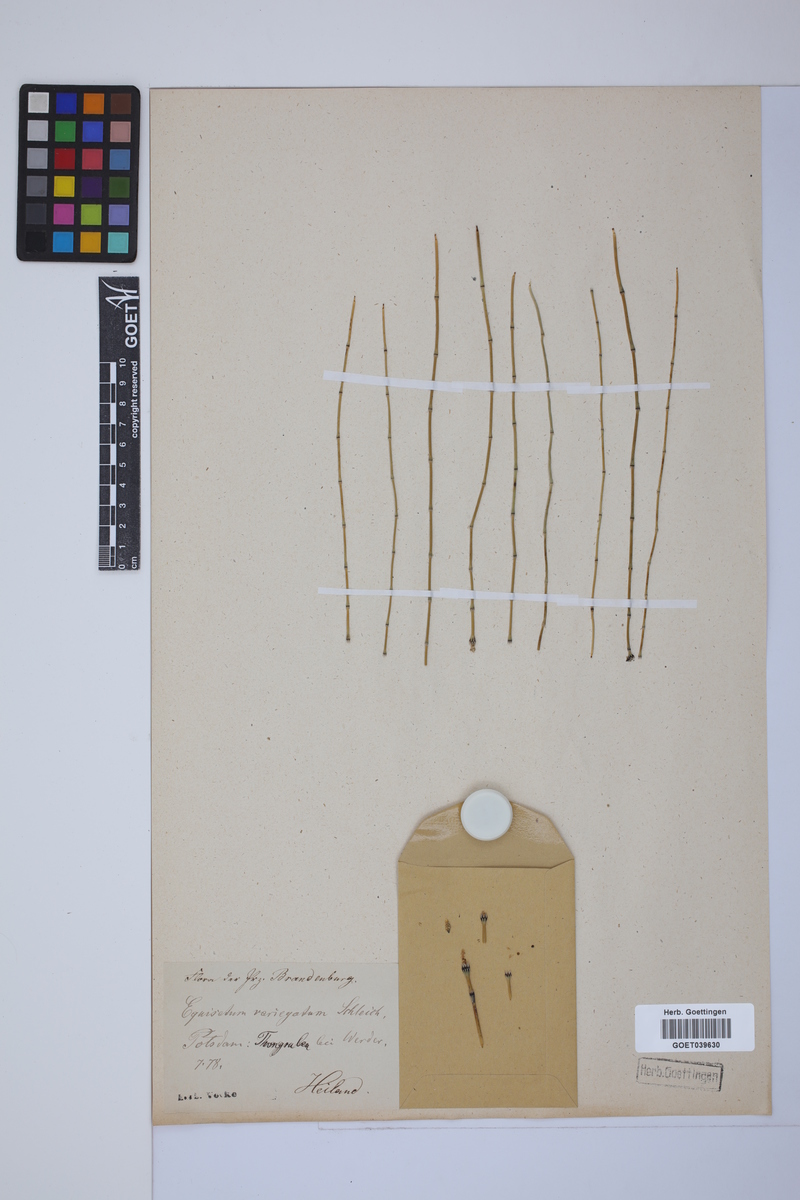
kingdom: Plantae
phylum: Tracheophyta
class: Polypodiopsida
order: Equisetales
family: Equisetaceae
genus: Equisetum
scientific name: Equisetum variegatum
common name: Variegated horsetail
